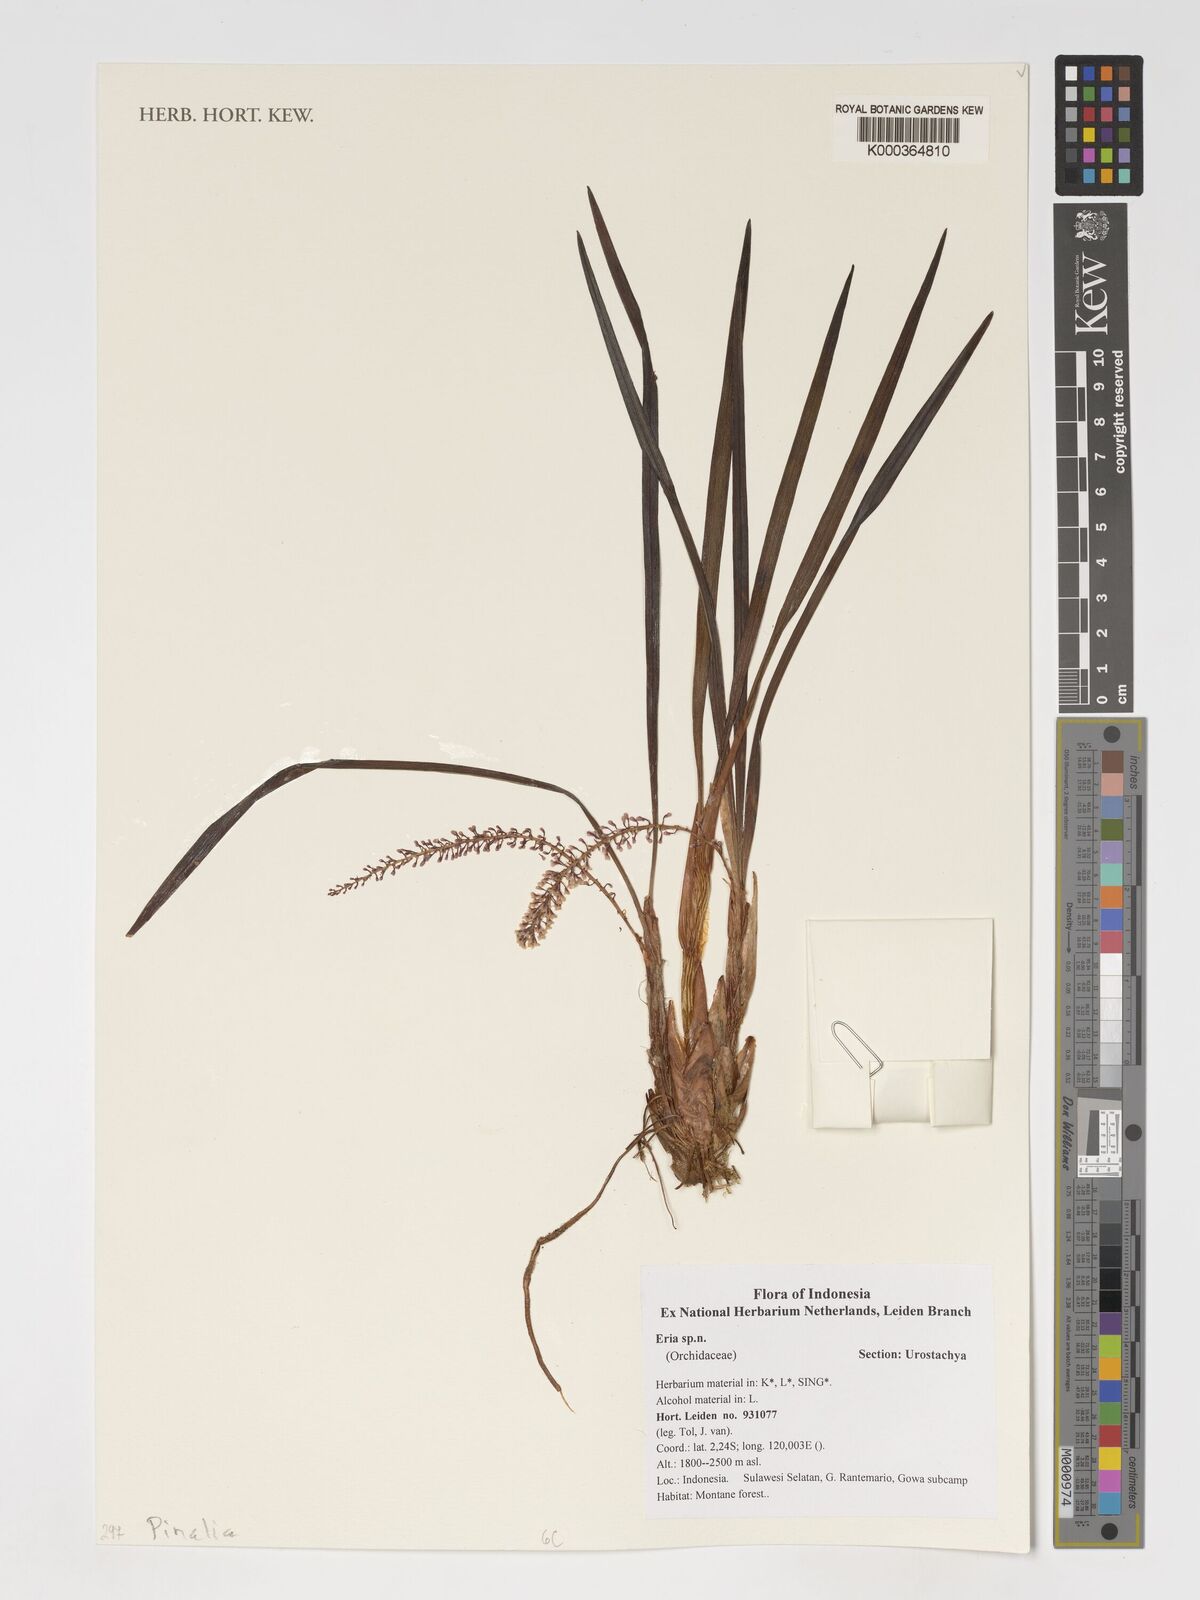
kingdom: Plantae
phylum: Tracheophyta
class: Liliopsida
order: Asparagales
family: Orchidaceae
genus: Eria
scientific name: Eria
